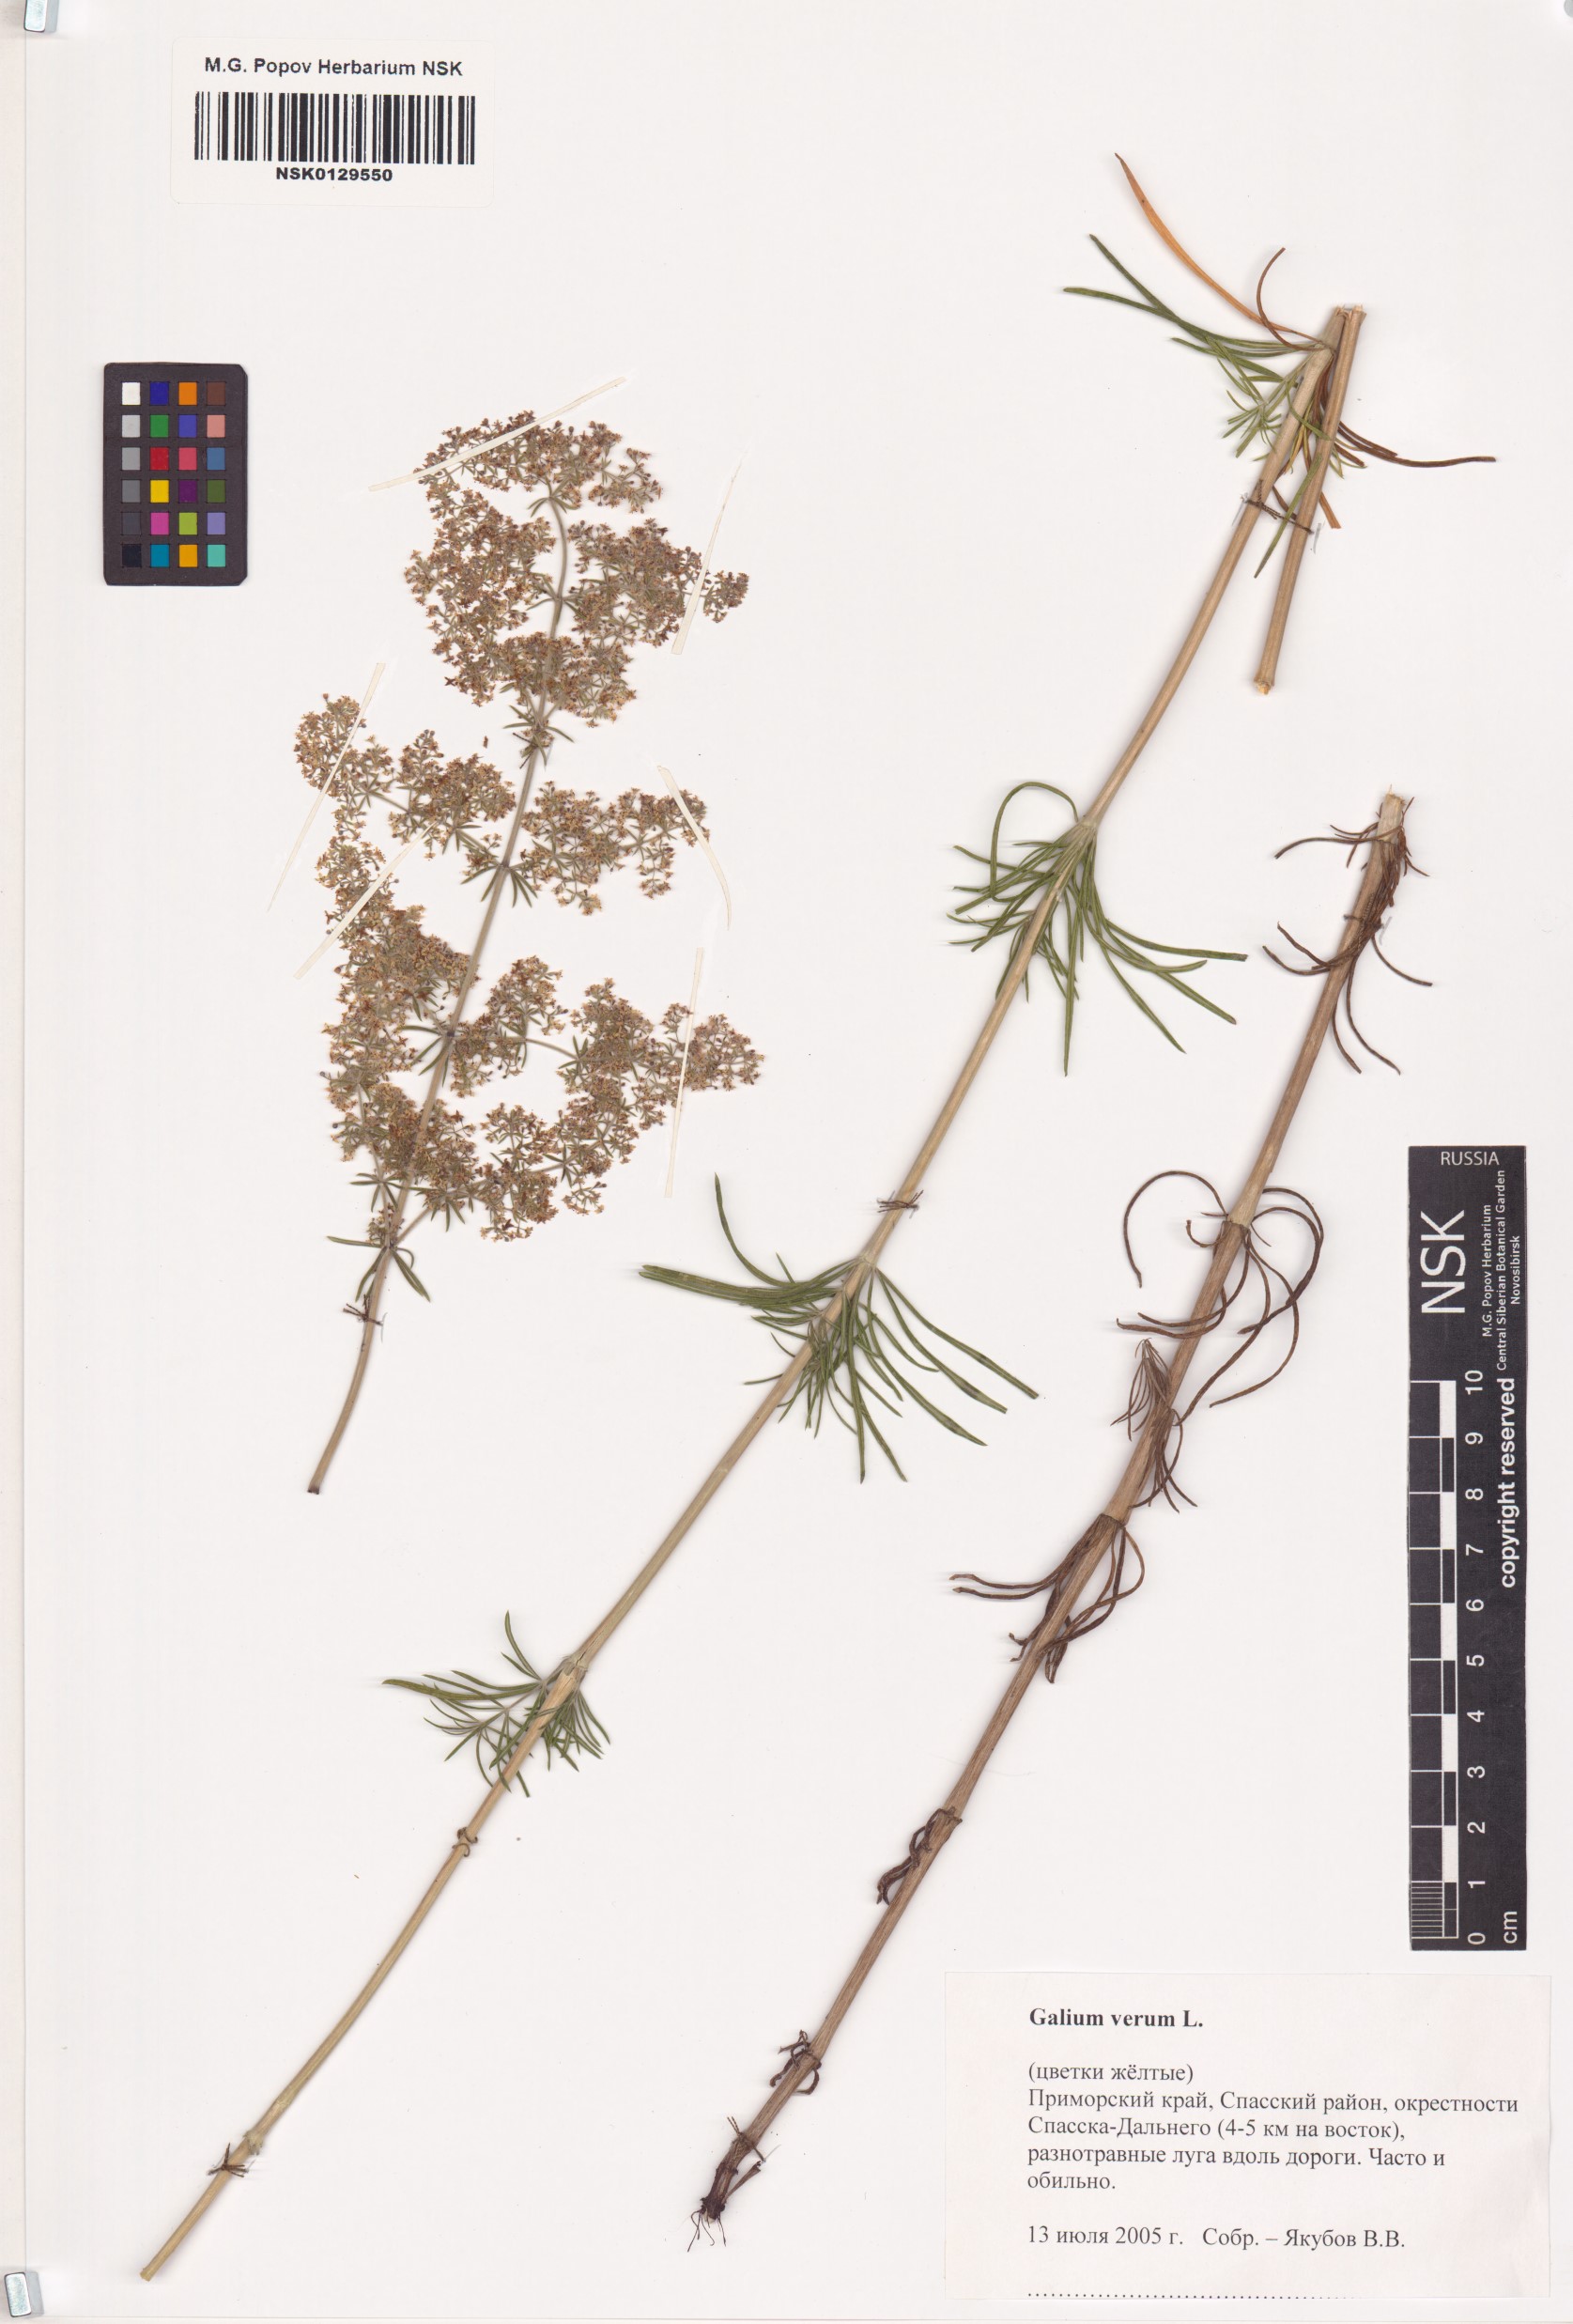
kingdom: Plantae
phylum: Tracheophyta
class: Magnoliopsida
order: Gentianales
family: Rubiaceae
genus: Galium
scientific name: Galium boreale
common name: Northern bedstraw
